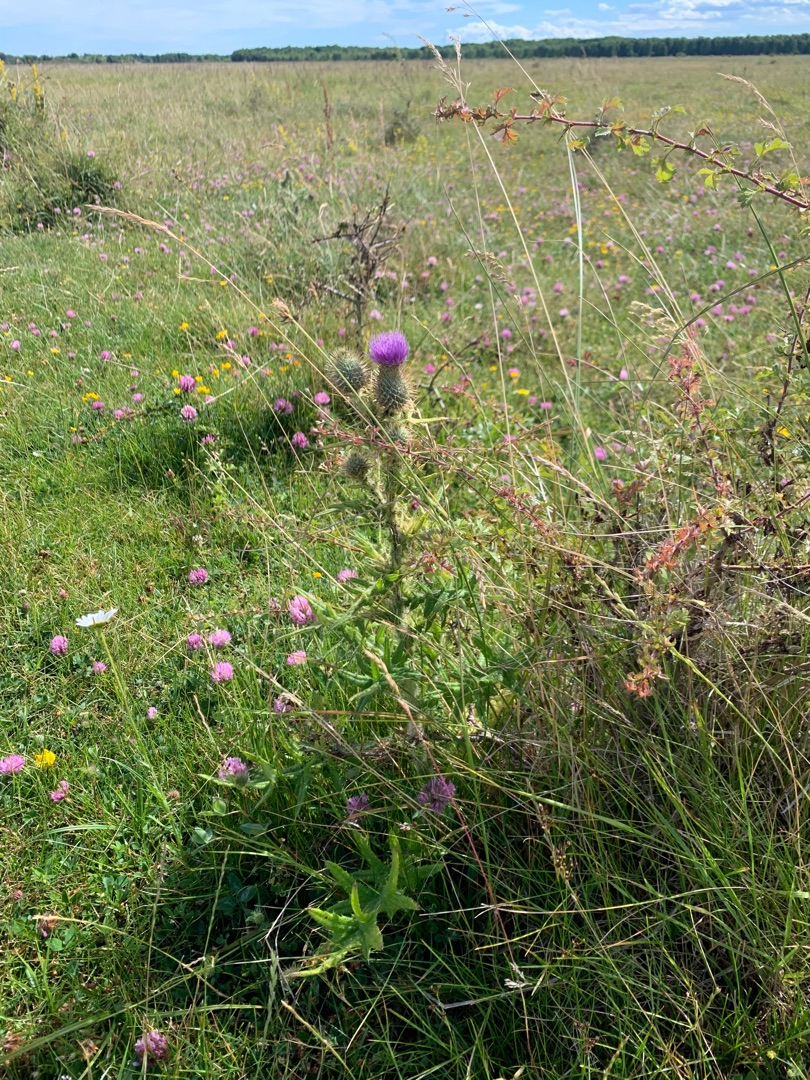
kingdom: Plantae
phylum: Tracheophyta
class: Magnoliopsida
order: Asterales
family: Asteraceae
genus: Cirsium
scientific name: Cirsium vulgare
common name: Horse-tidsel
